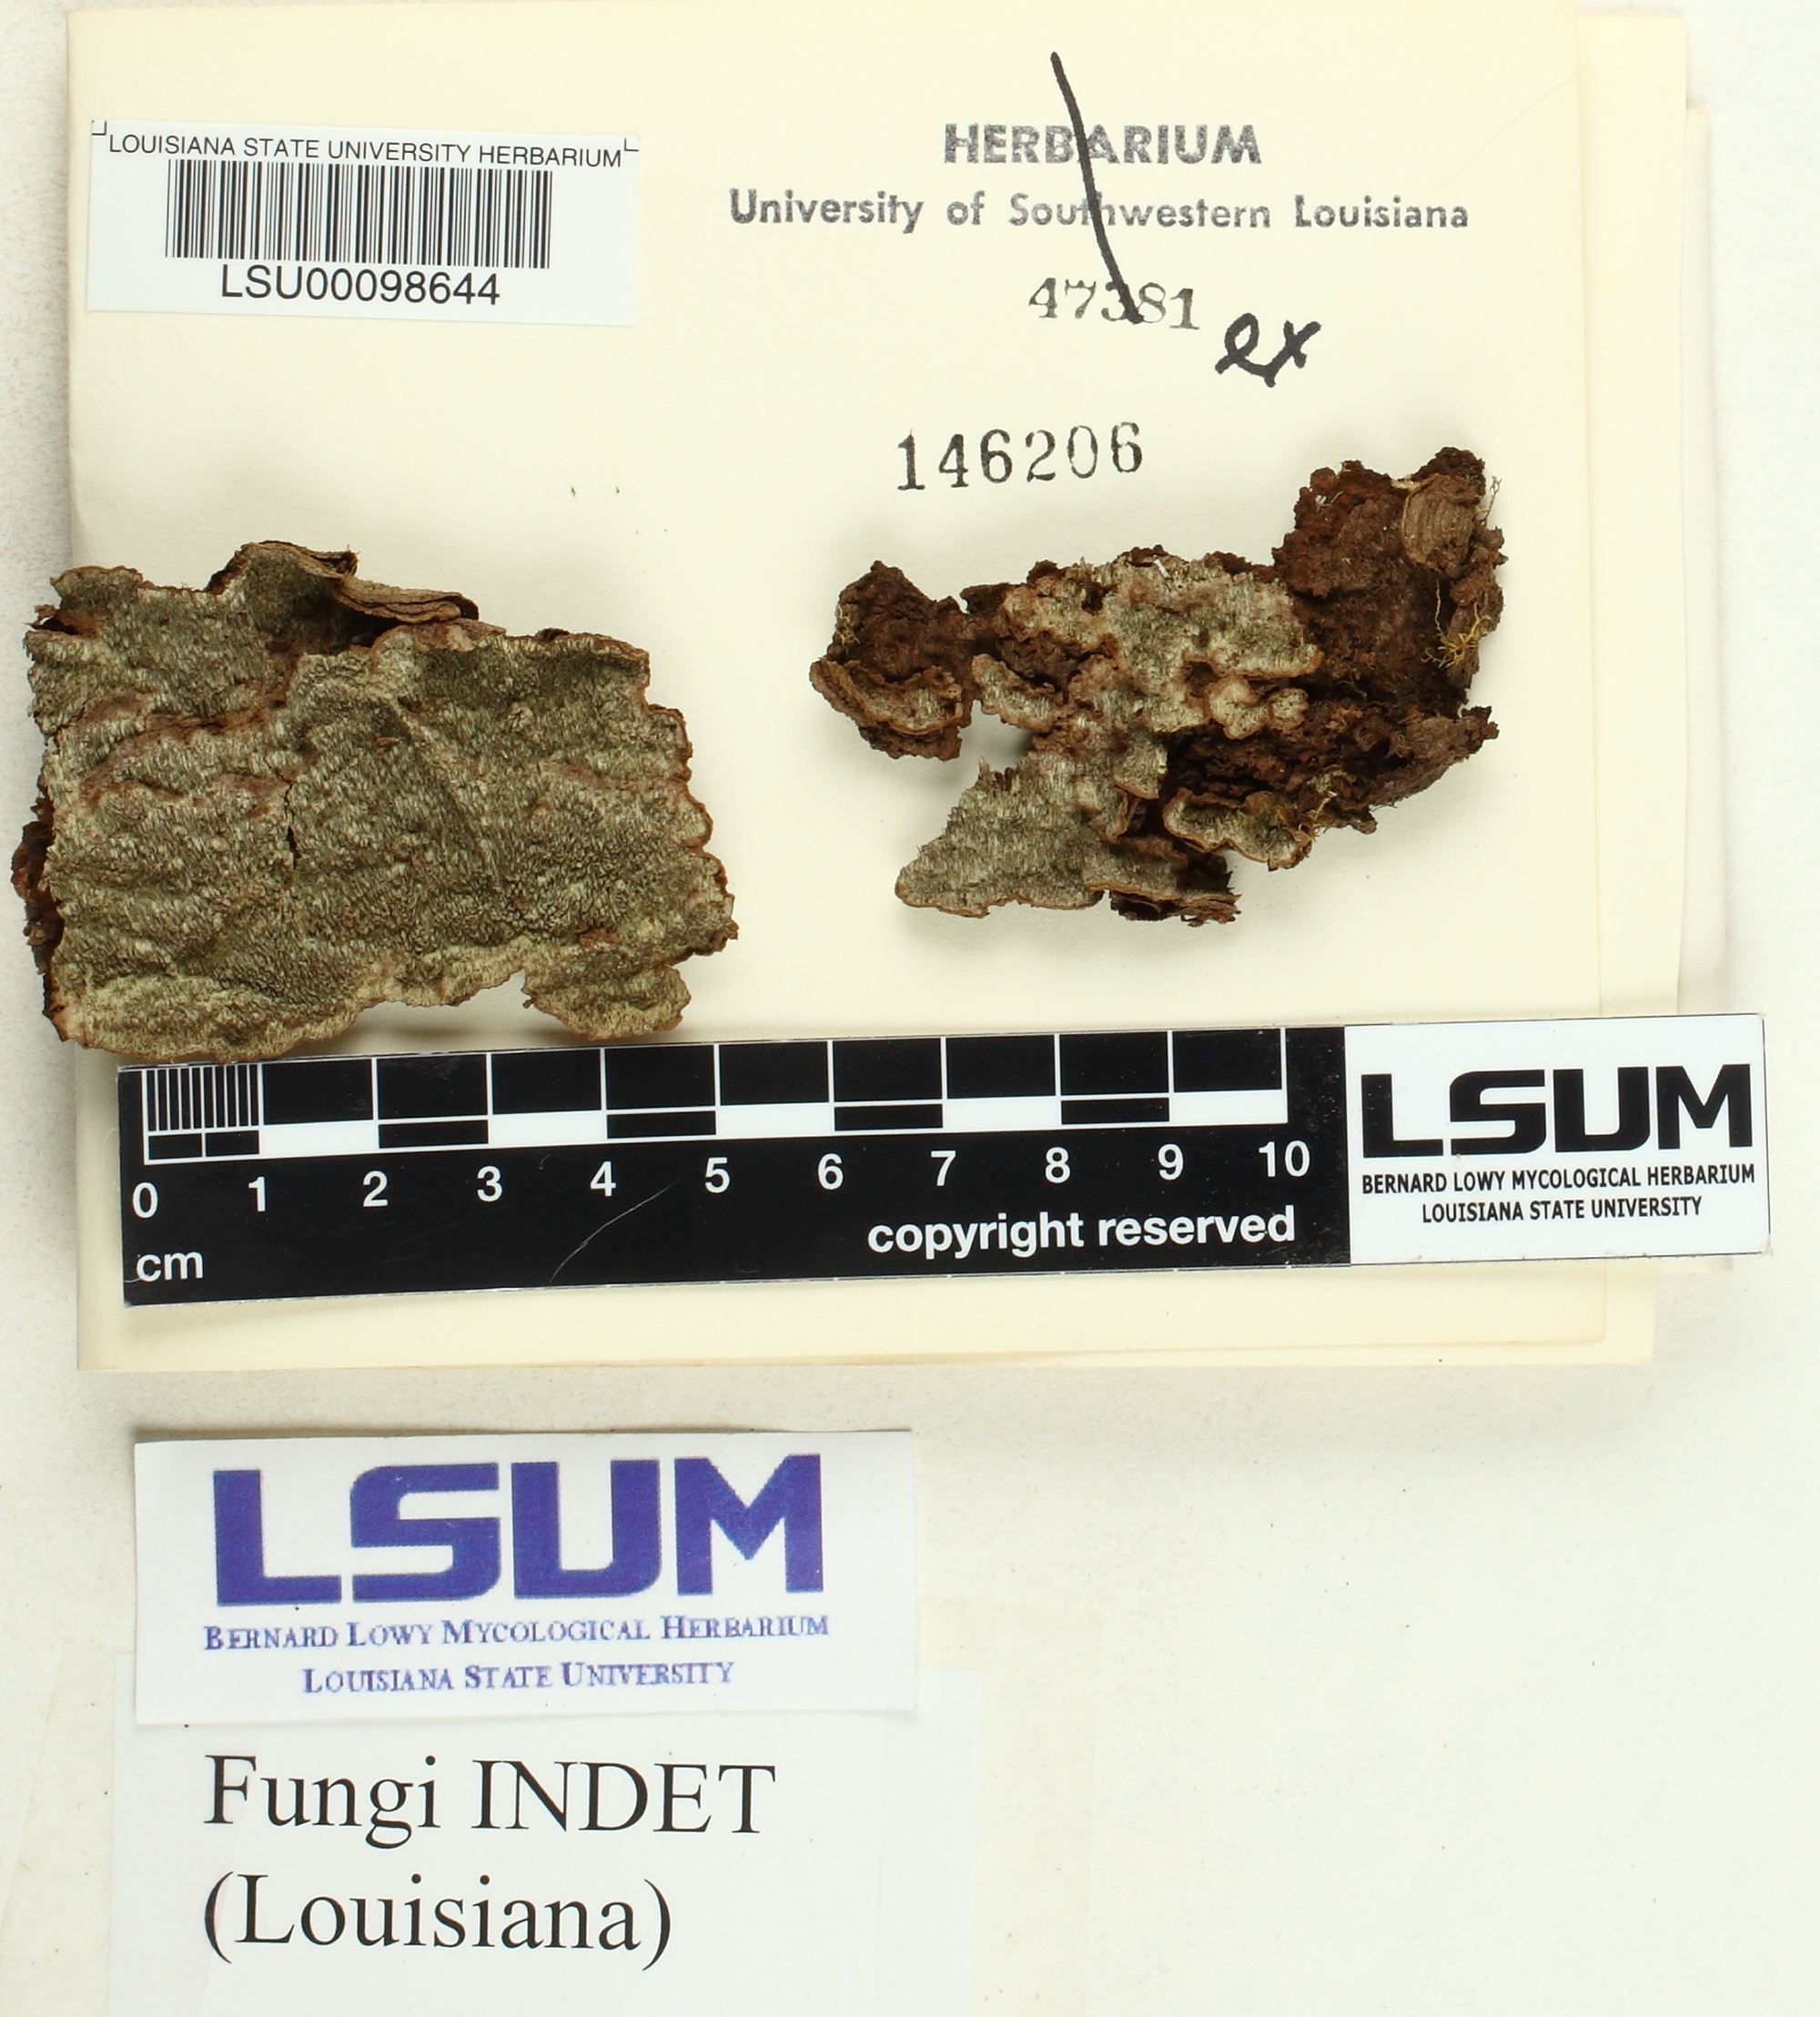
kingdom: Fungi
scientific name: Fungi
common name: Fungi
